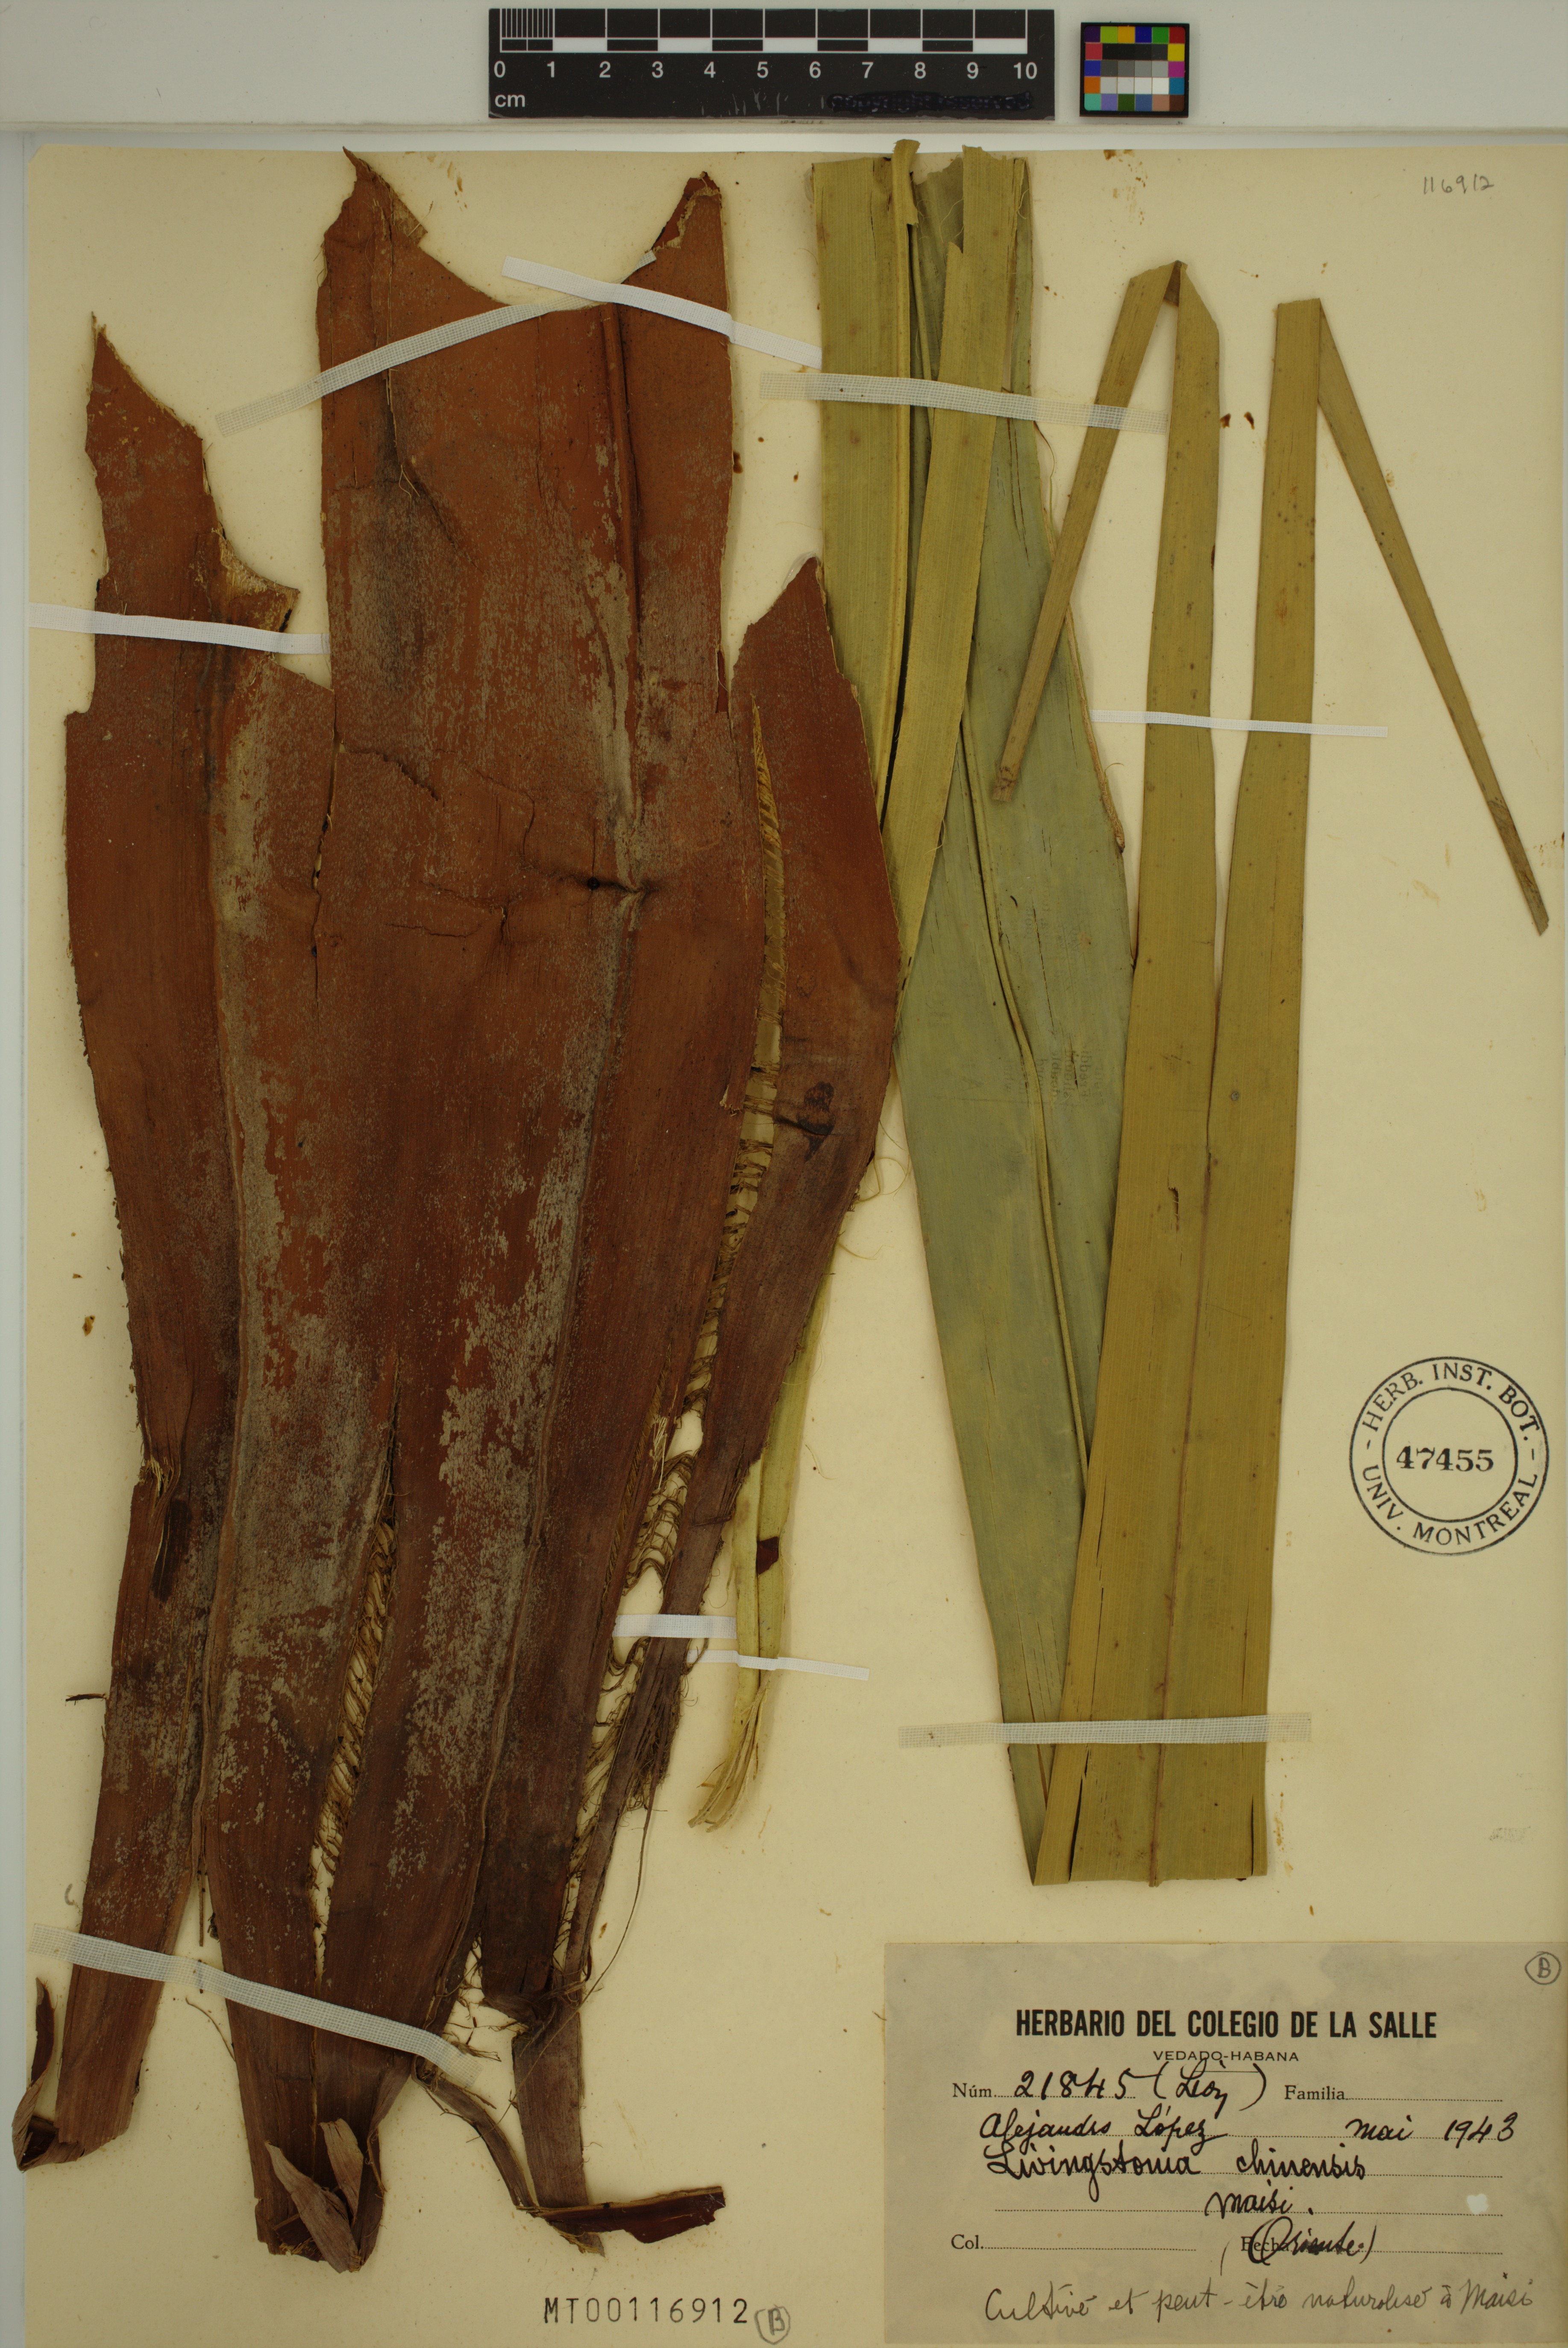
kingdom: Plantae
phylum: Tracheophyta
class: Liliopsida
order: Arecales
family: Arecaceae
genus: Livistona
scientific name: Livistona chinensis
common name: Fountain palm
